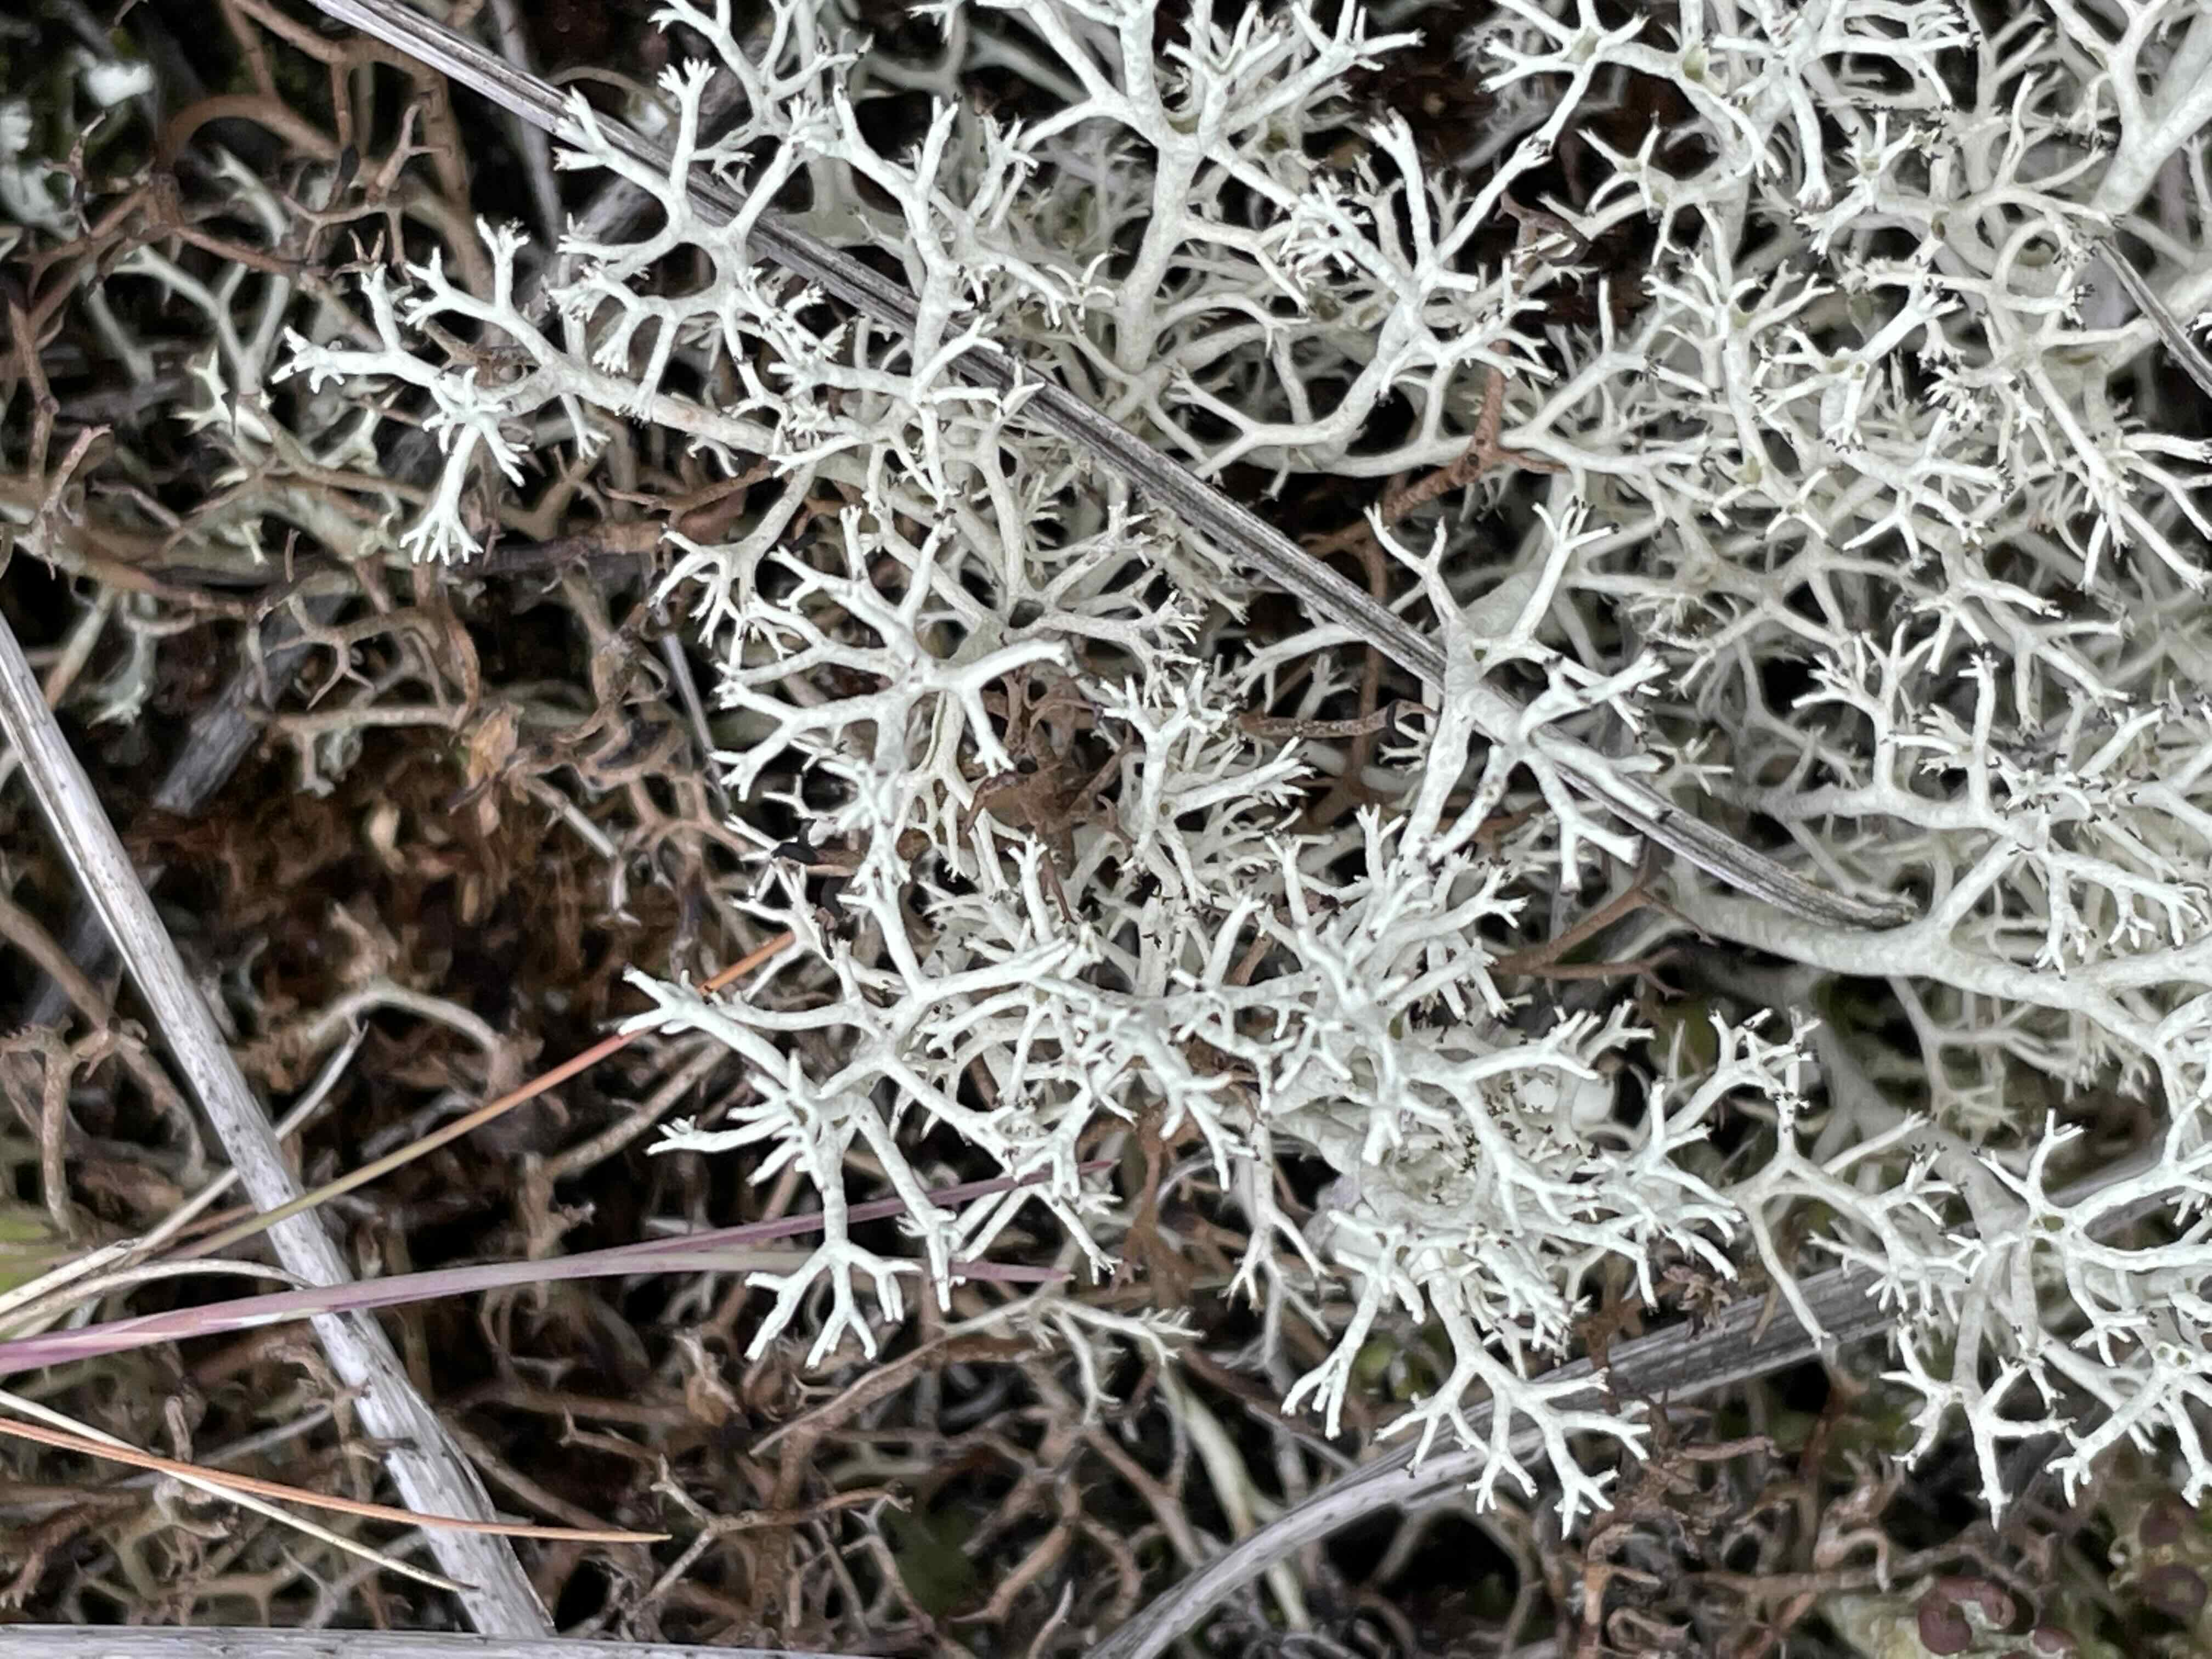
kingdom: Fungi
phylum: Ascomycota
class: Lecanoromycetes
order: Lecanorales
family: Cladoniaceae
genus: Cladonia
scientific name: Cladonia portentosa
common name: hede-rensdyrlav
